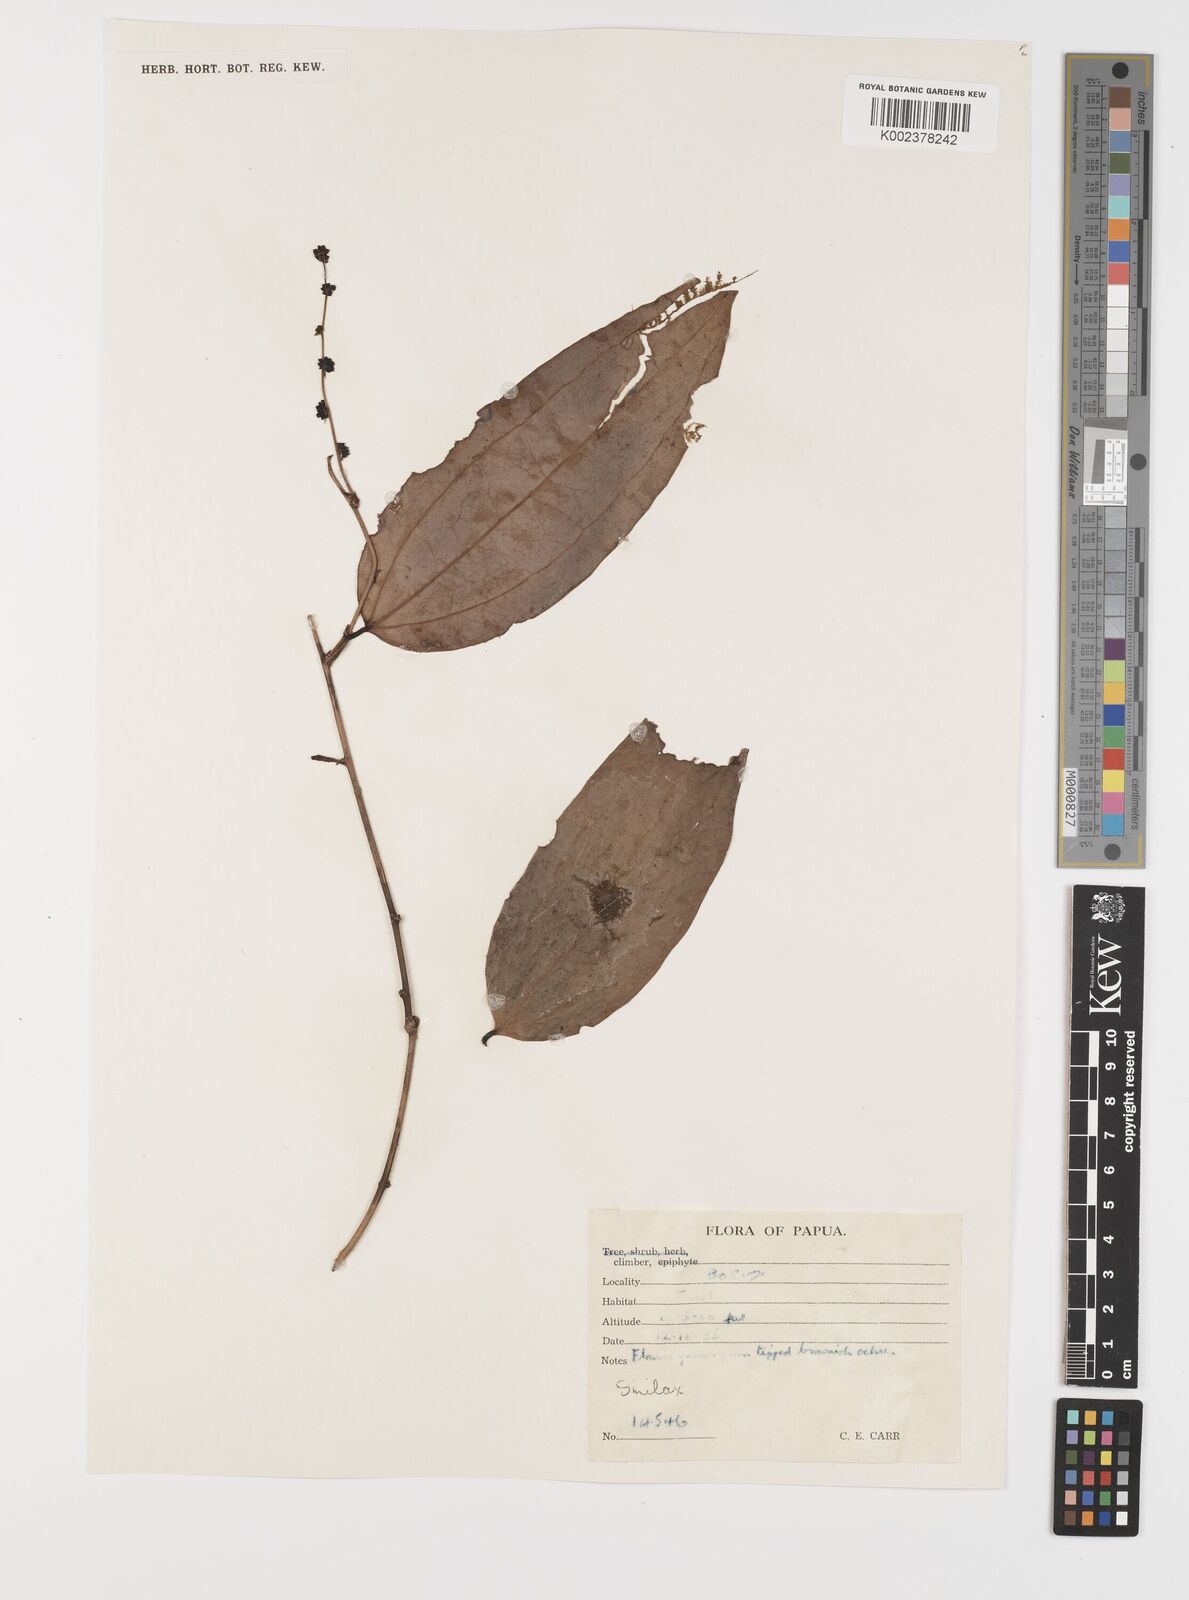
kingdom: Plantae
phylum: Tracheophyta
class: Liliopsida
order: Liliales
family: Smilacaceae
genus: Smilax
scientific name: Smilax
